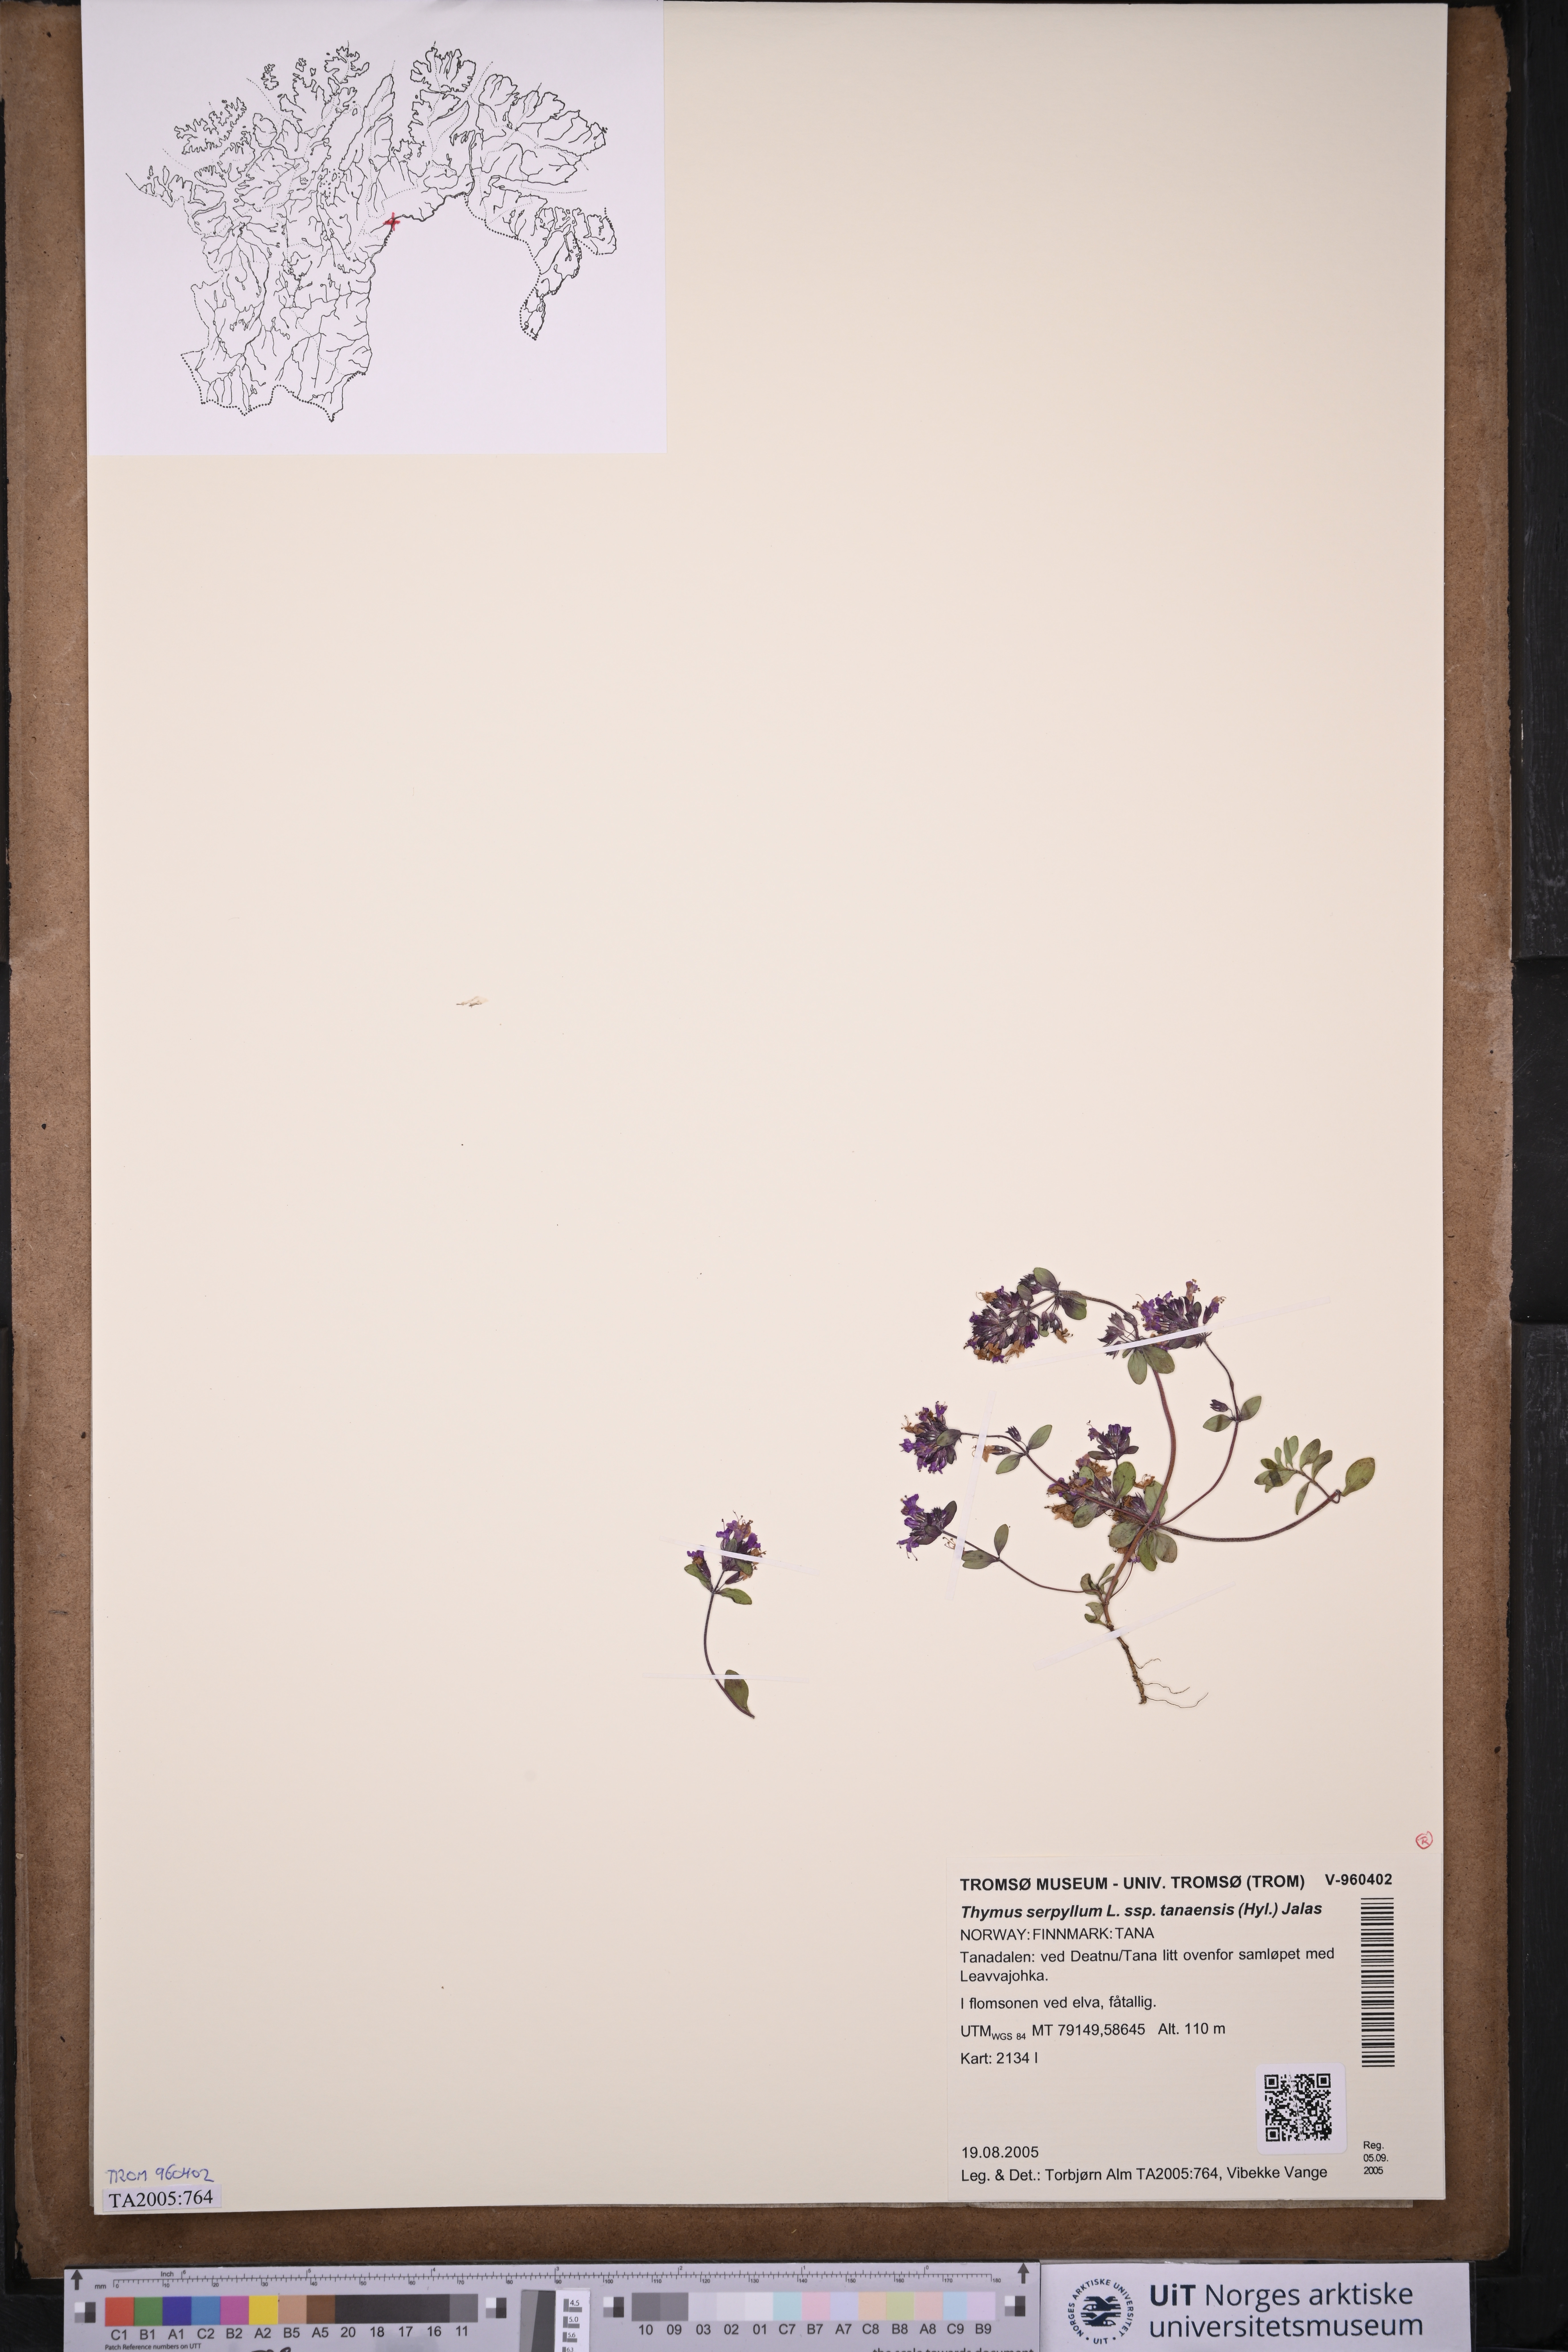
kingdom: Plantae
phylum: Tracheophyta
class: Magnoliopsida
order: Lamiales
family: Lamiaceae
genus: Thymus
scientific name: Thymus serpyllum
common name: Breckland thyme
